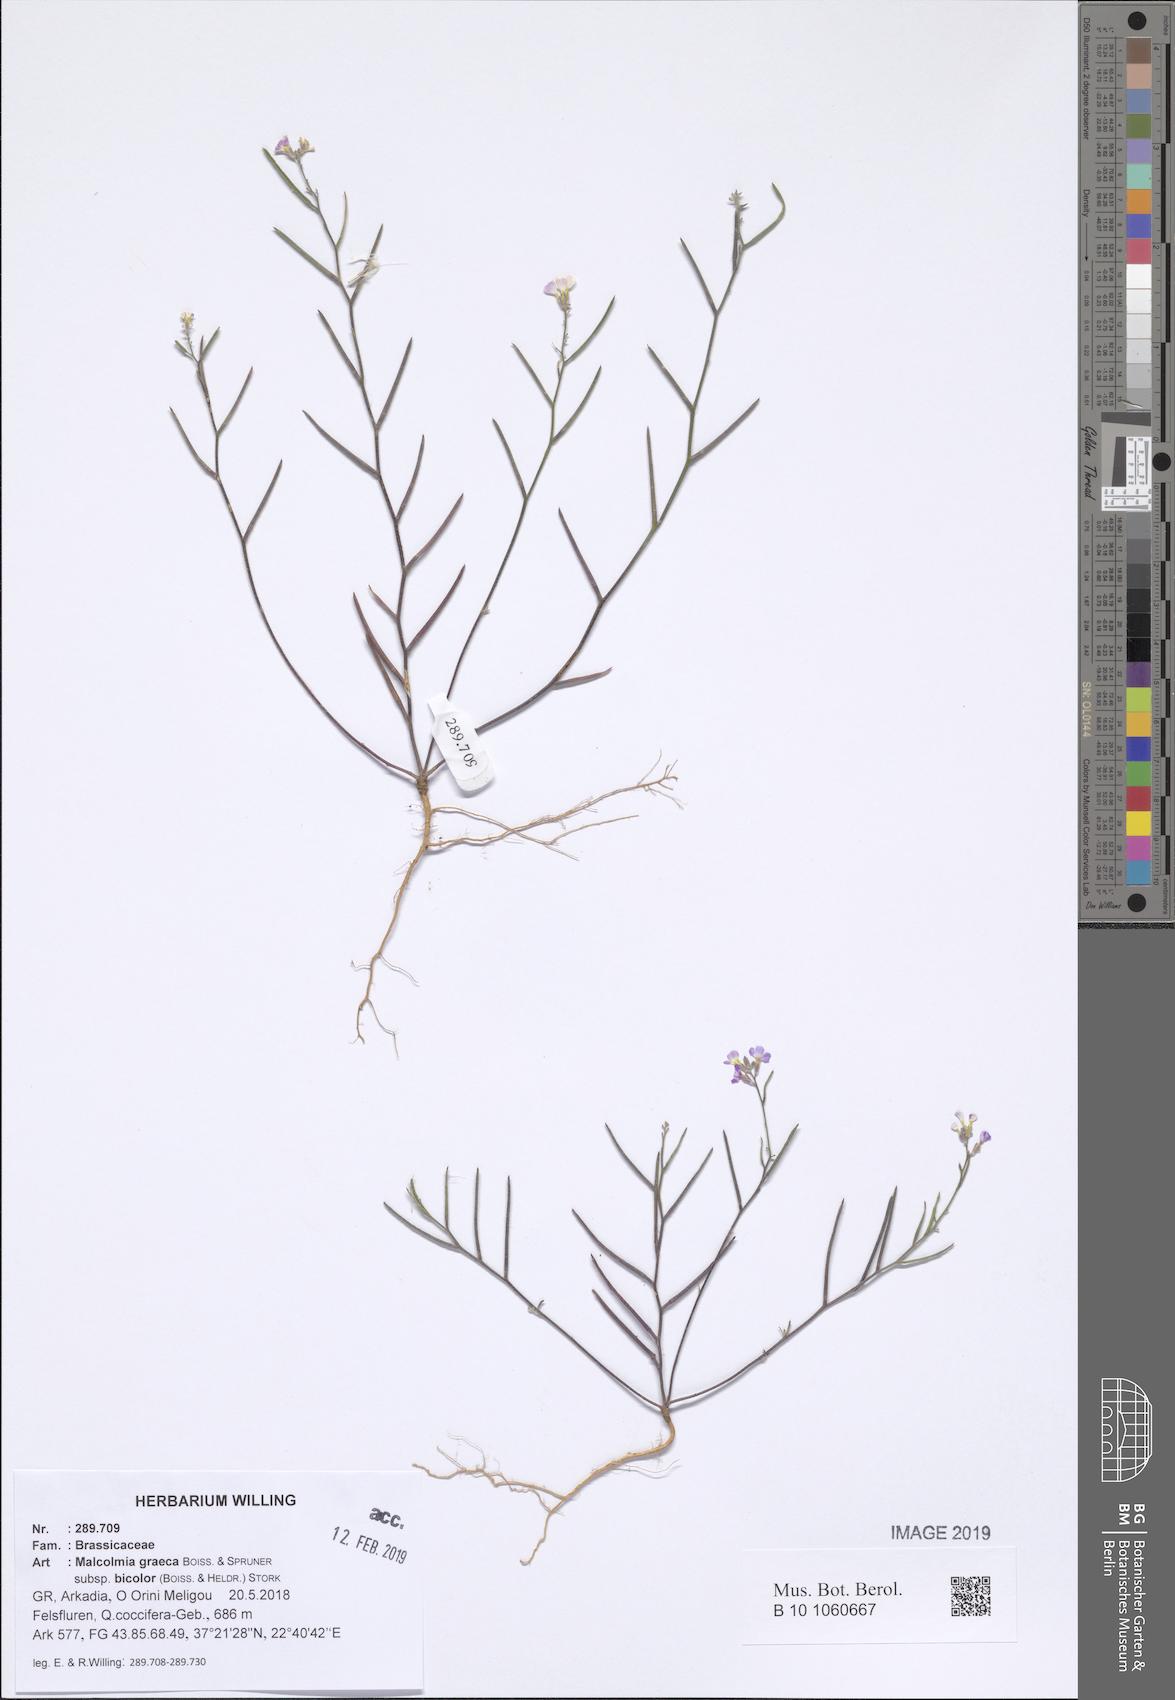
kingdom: Plantae
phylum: Tracheophyta
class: Magnoliopsida
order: Brassicales
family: Brassicaceae
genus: Malcolmia
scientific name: Malcolmia graeca
